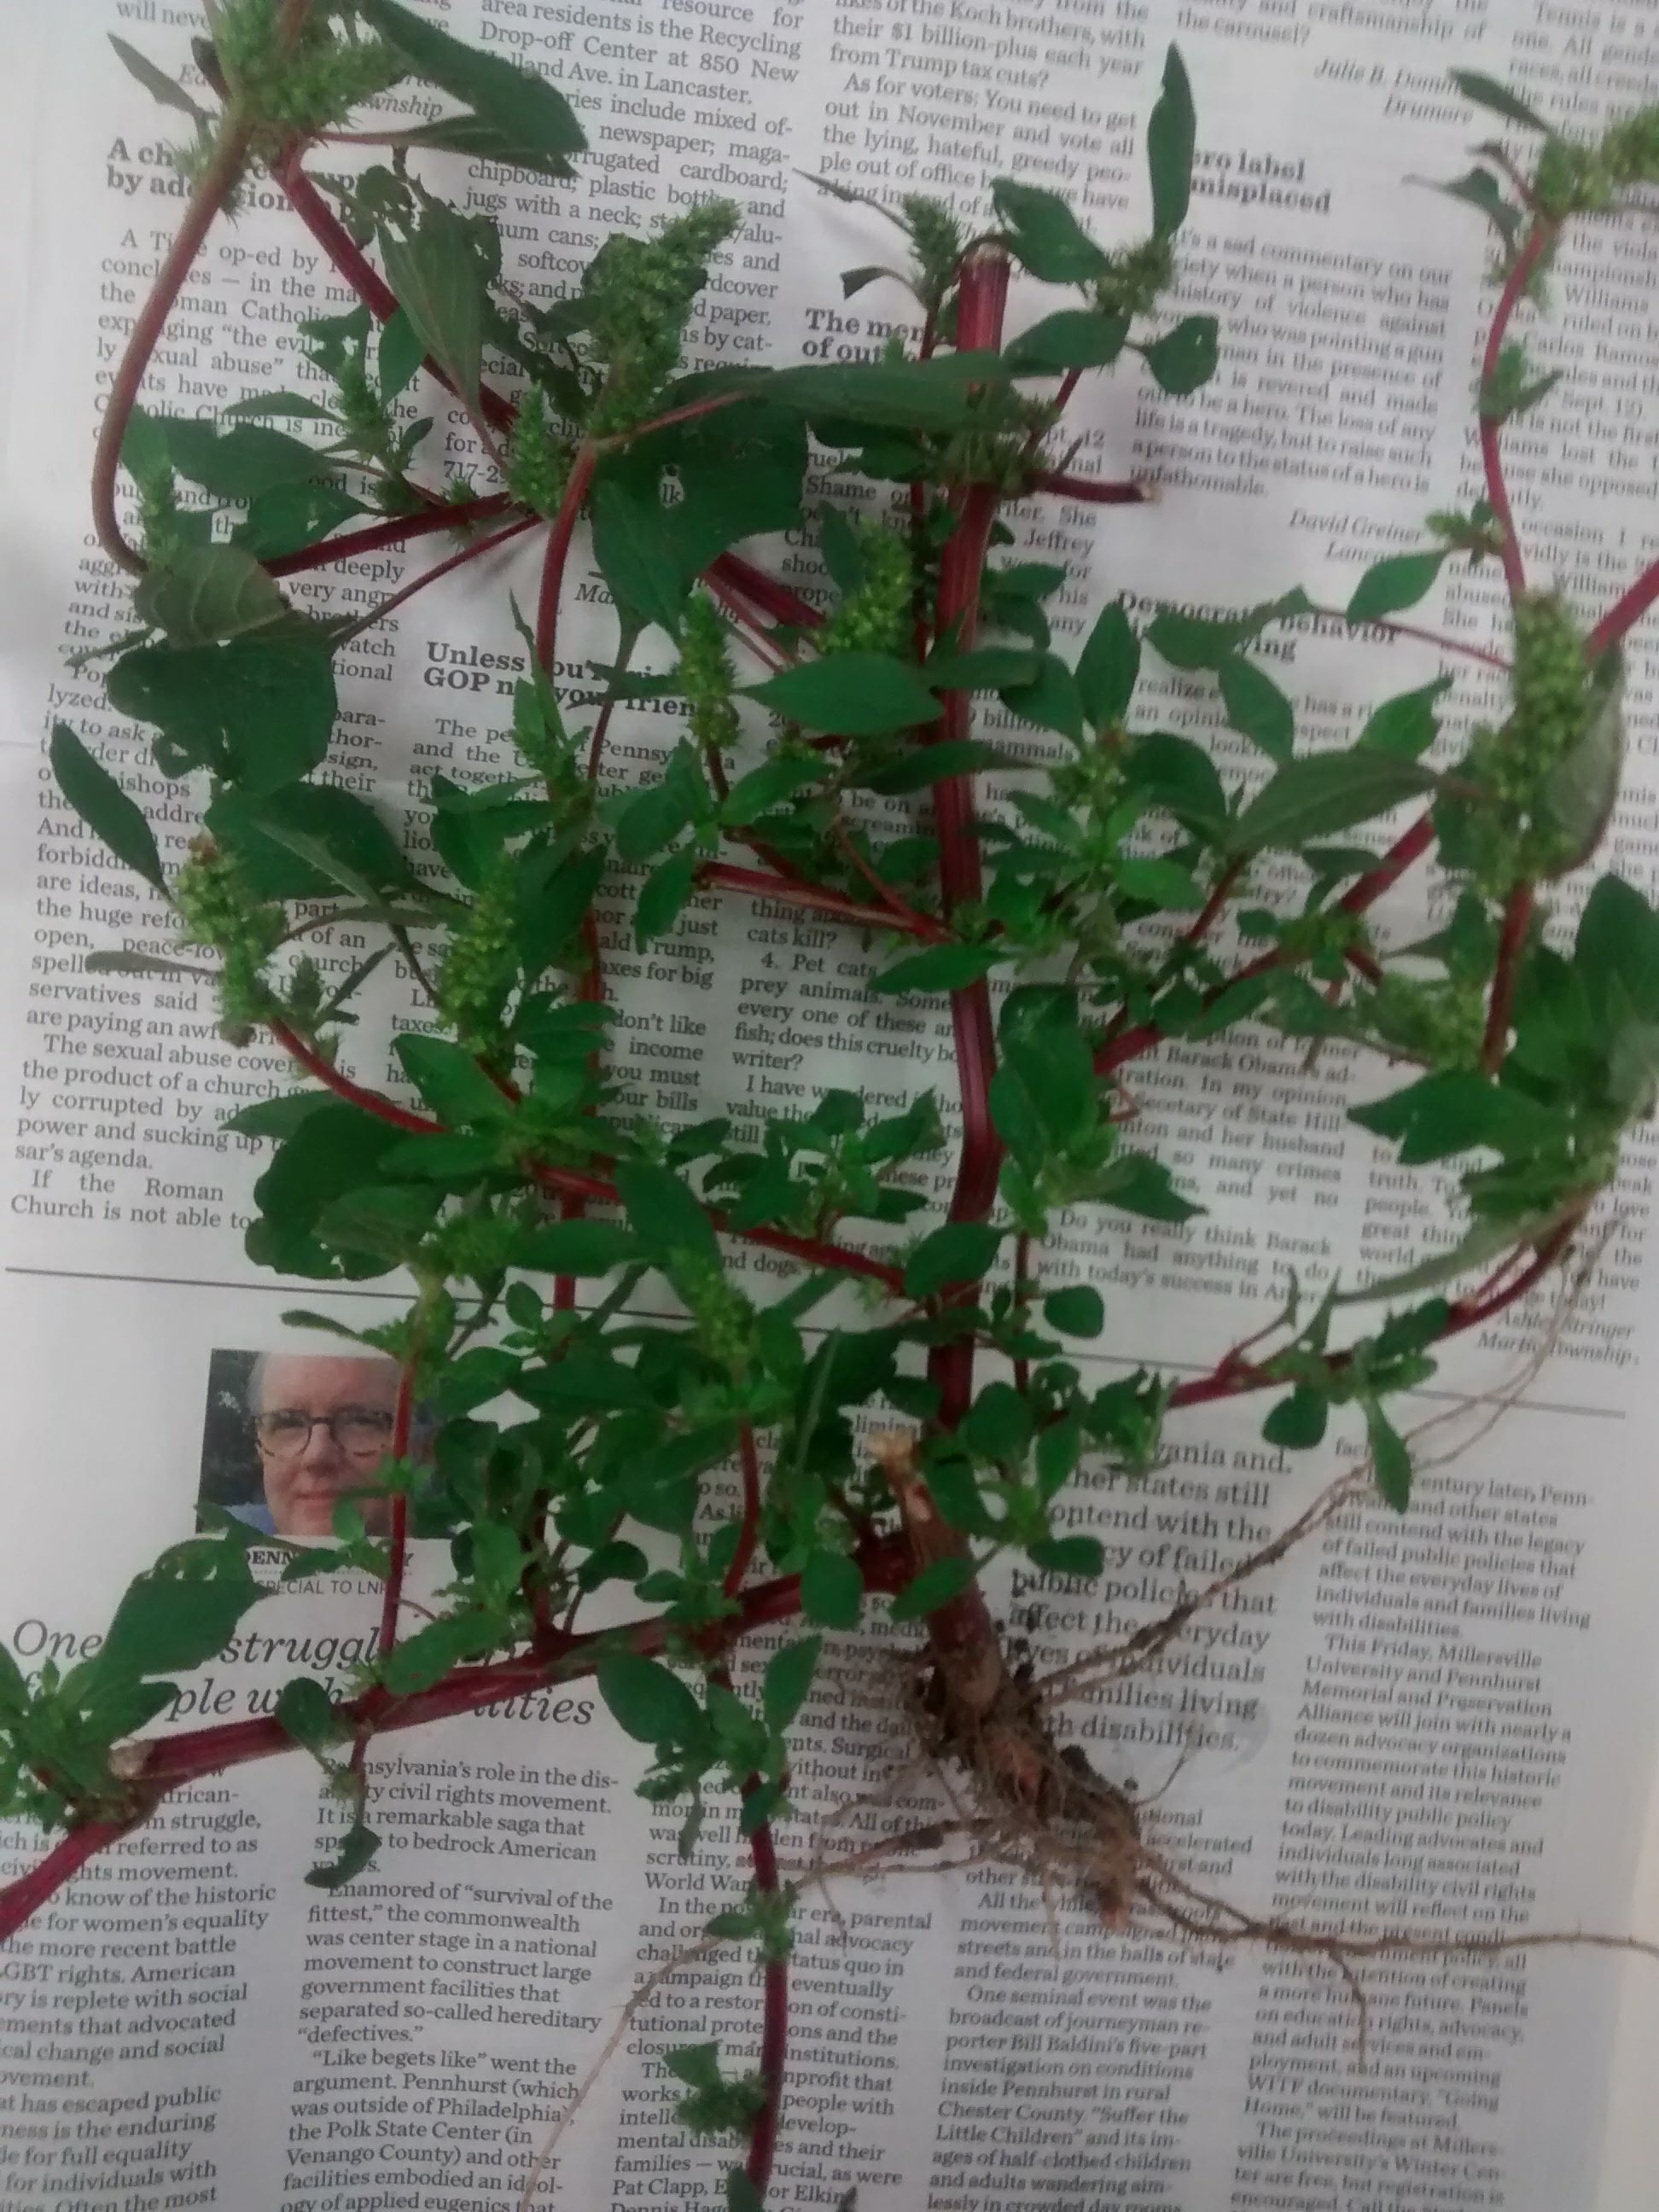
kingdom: Plantae
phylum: Tracheophyta
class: Magnoliopsida
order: Caryophyllales
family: Amaranthaceae
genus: Amaranthus
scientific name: Amaranthus hybridus
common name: Pigweed
